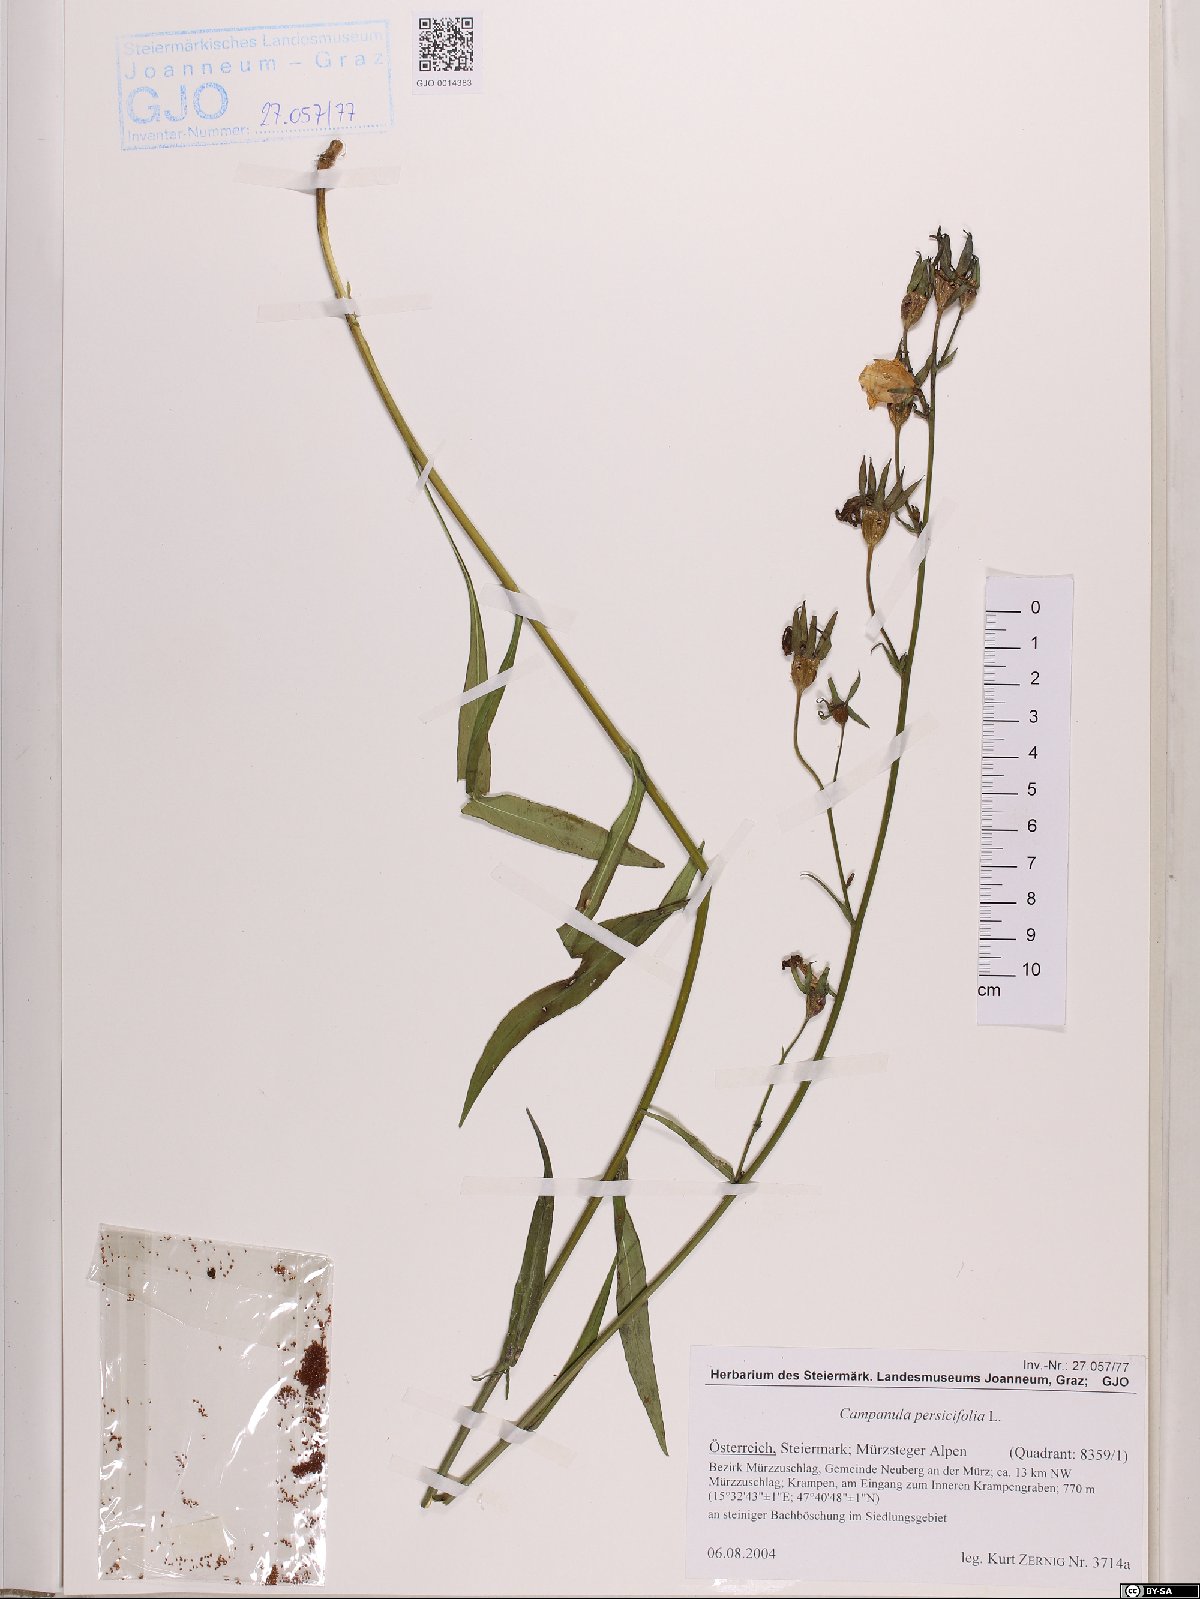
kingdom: Plantae
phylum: Tracheophyta
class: Magnoliopsida
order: Asterales
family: Campanulaceae
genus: Campanula
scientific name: Campanula persicifolia
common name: Peach-leaved bellflower
